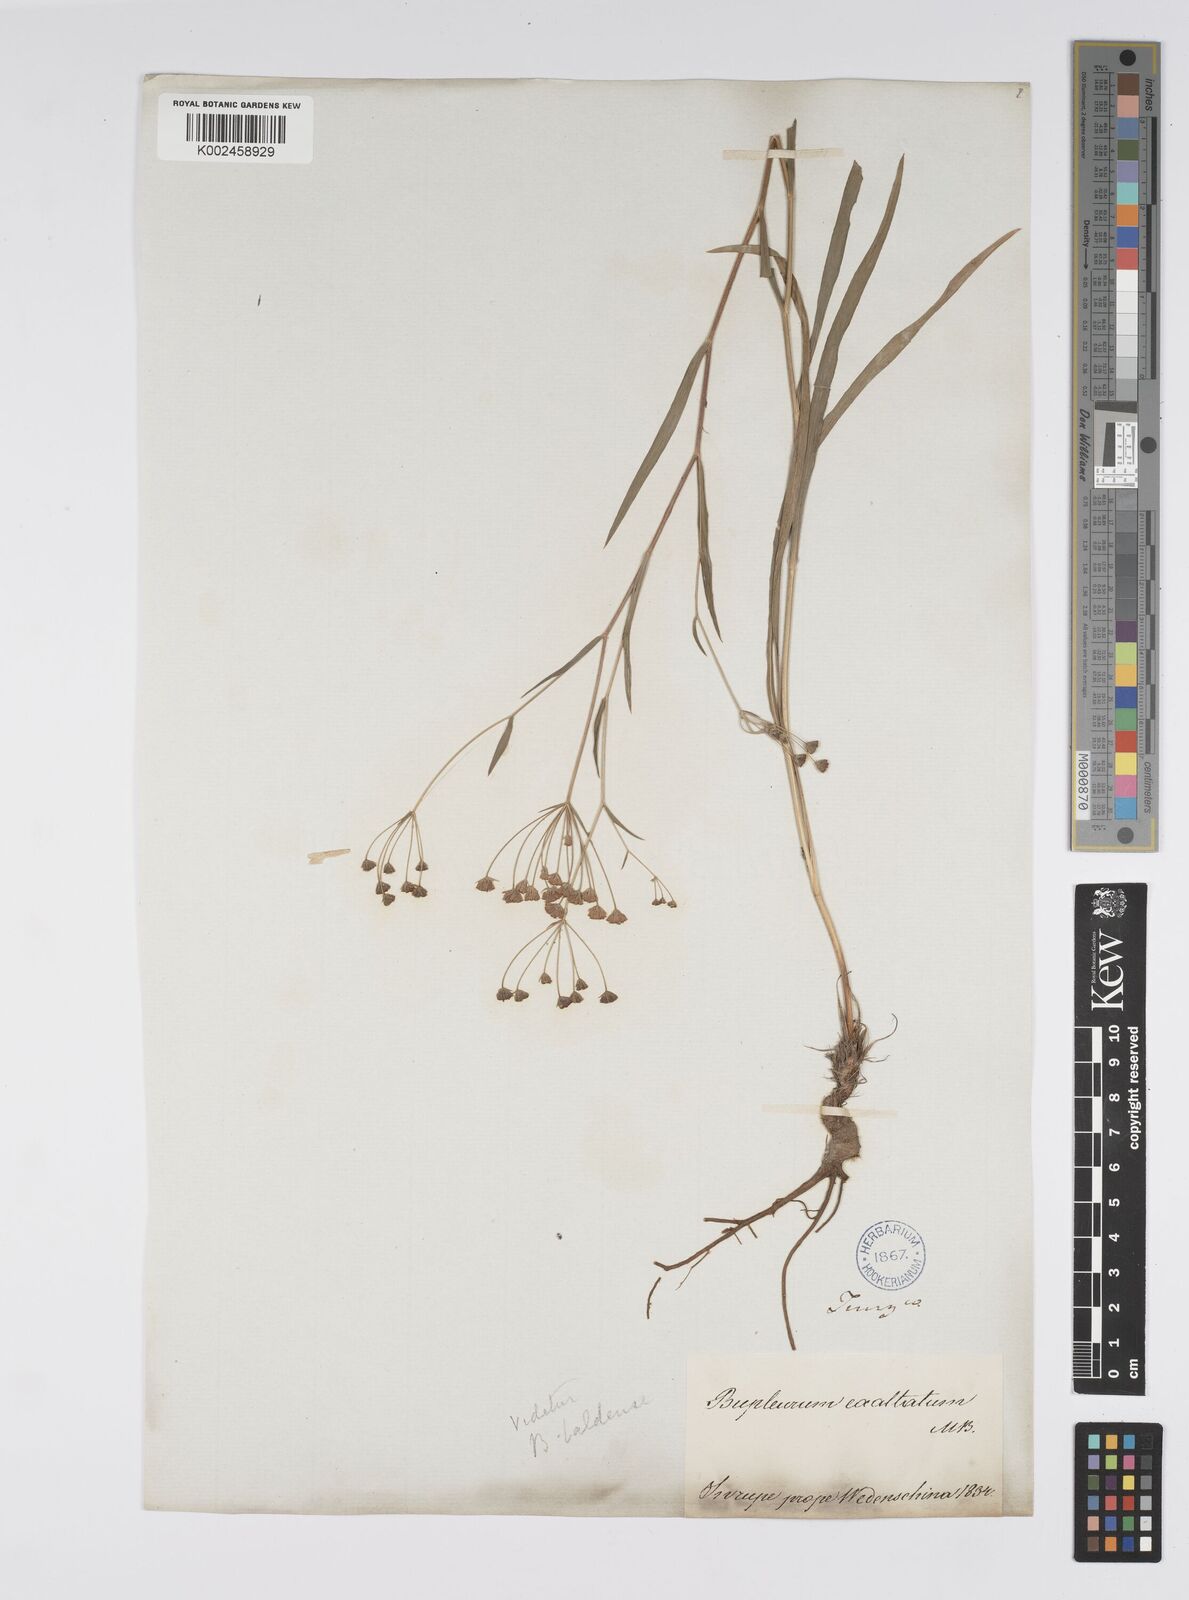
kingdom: Plantae
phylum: Tracheophyta
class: Magnoliopsida
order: Apiales
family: Apiaceae
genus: Bupleurum
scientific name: Bupleurum falcatum
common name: Sickle-leaved hare's-ear
